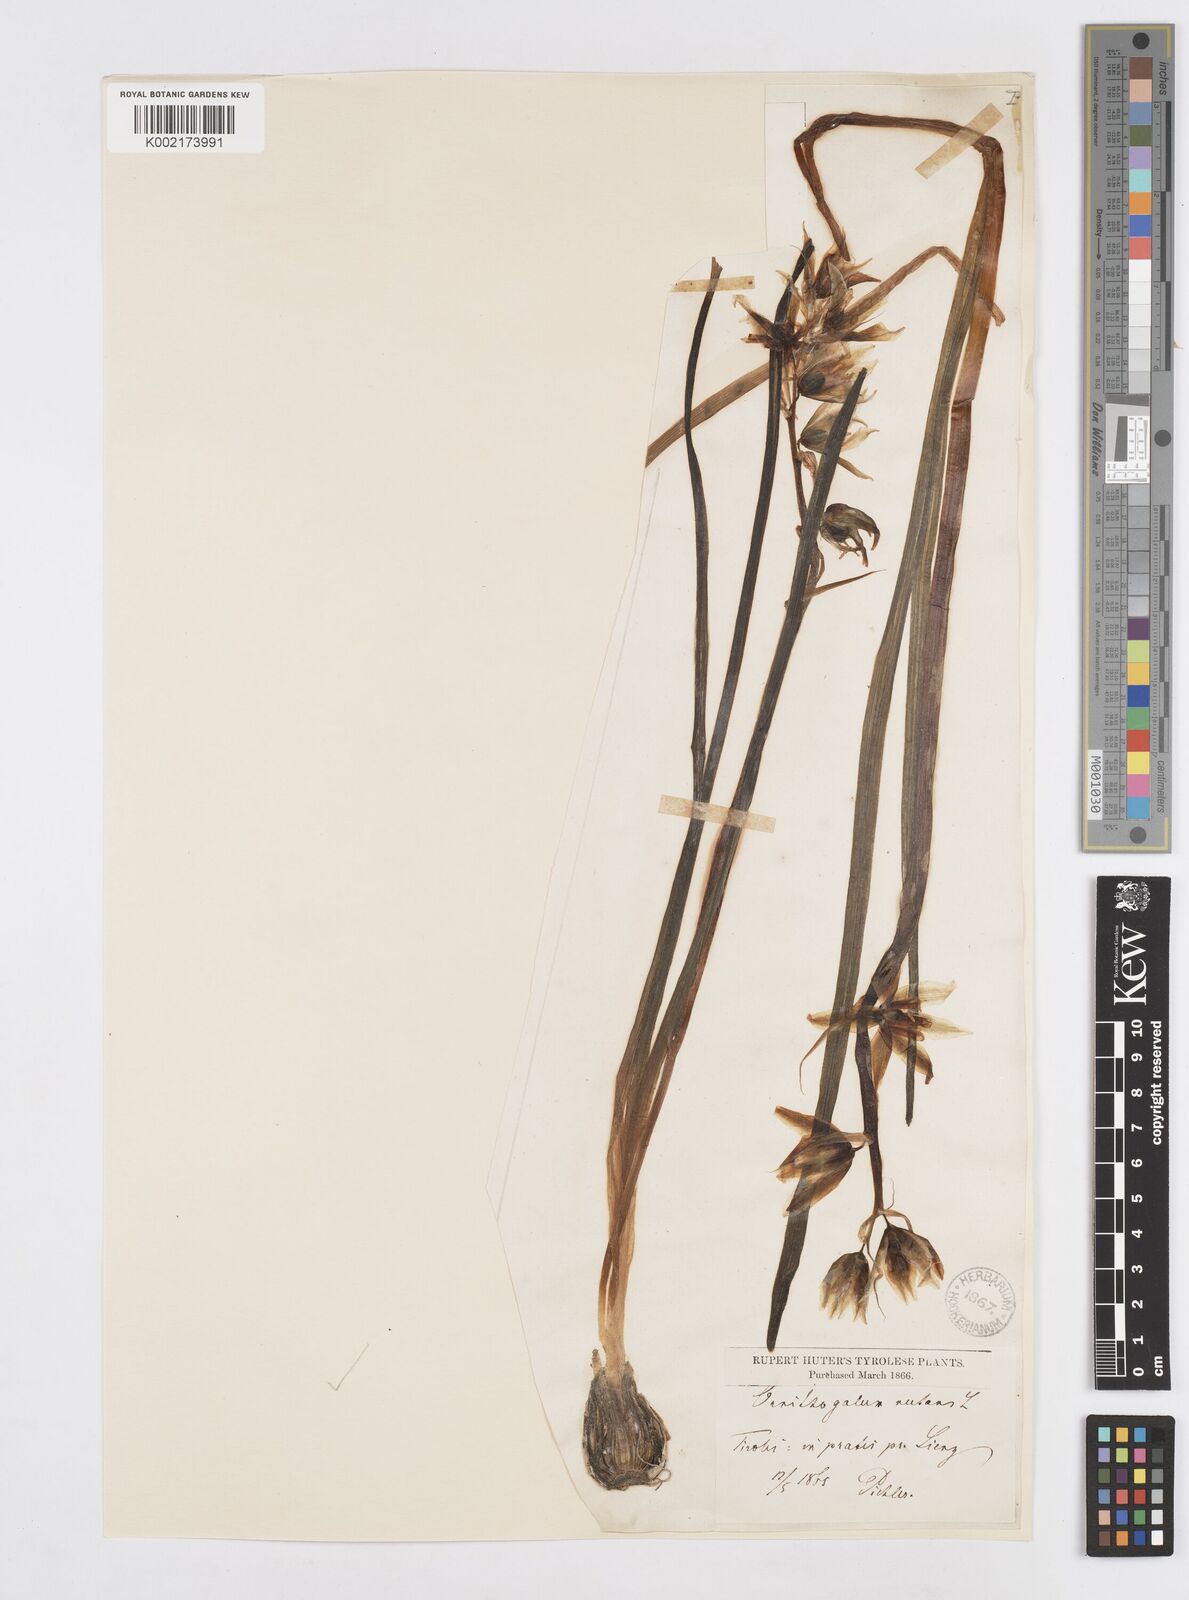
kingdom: Plantae
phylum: Tracheophyta
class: Liliopsida
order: Asparagales
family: Asparagaceae
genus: Ornithogalum
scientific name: Ornithogalum nutans
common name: Drooping star-of-bethlehem
